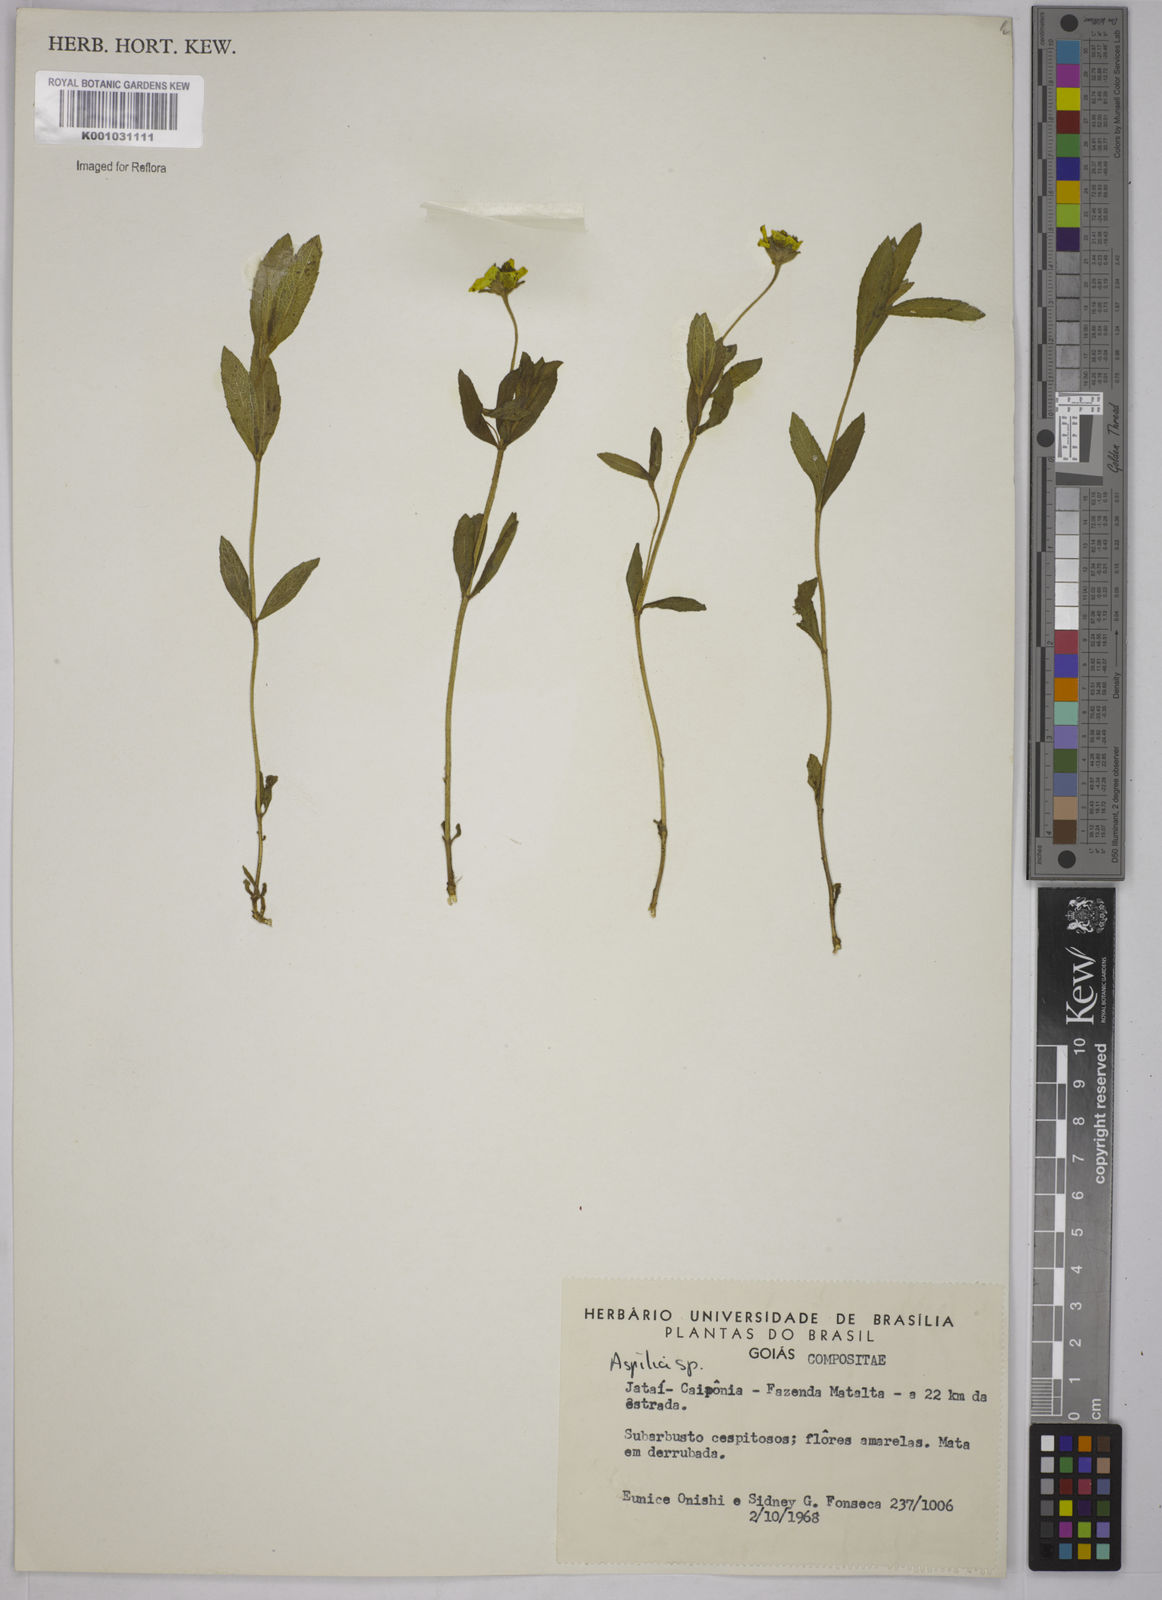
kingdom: Plantae
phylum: Tracheophyta
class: Magnoliopsida
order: Asterales
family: Asteraceae
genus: Aspilia
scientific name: Aspilia
